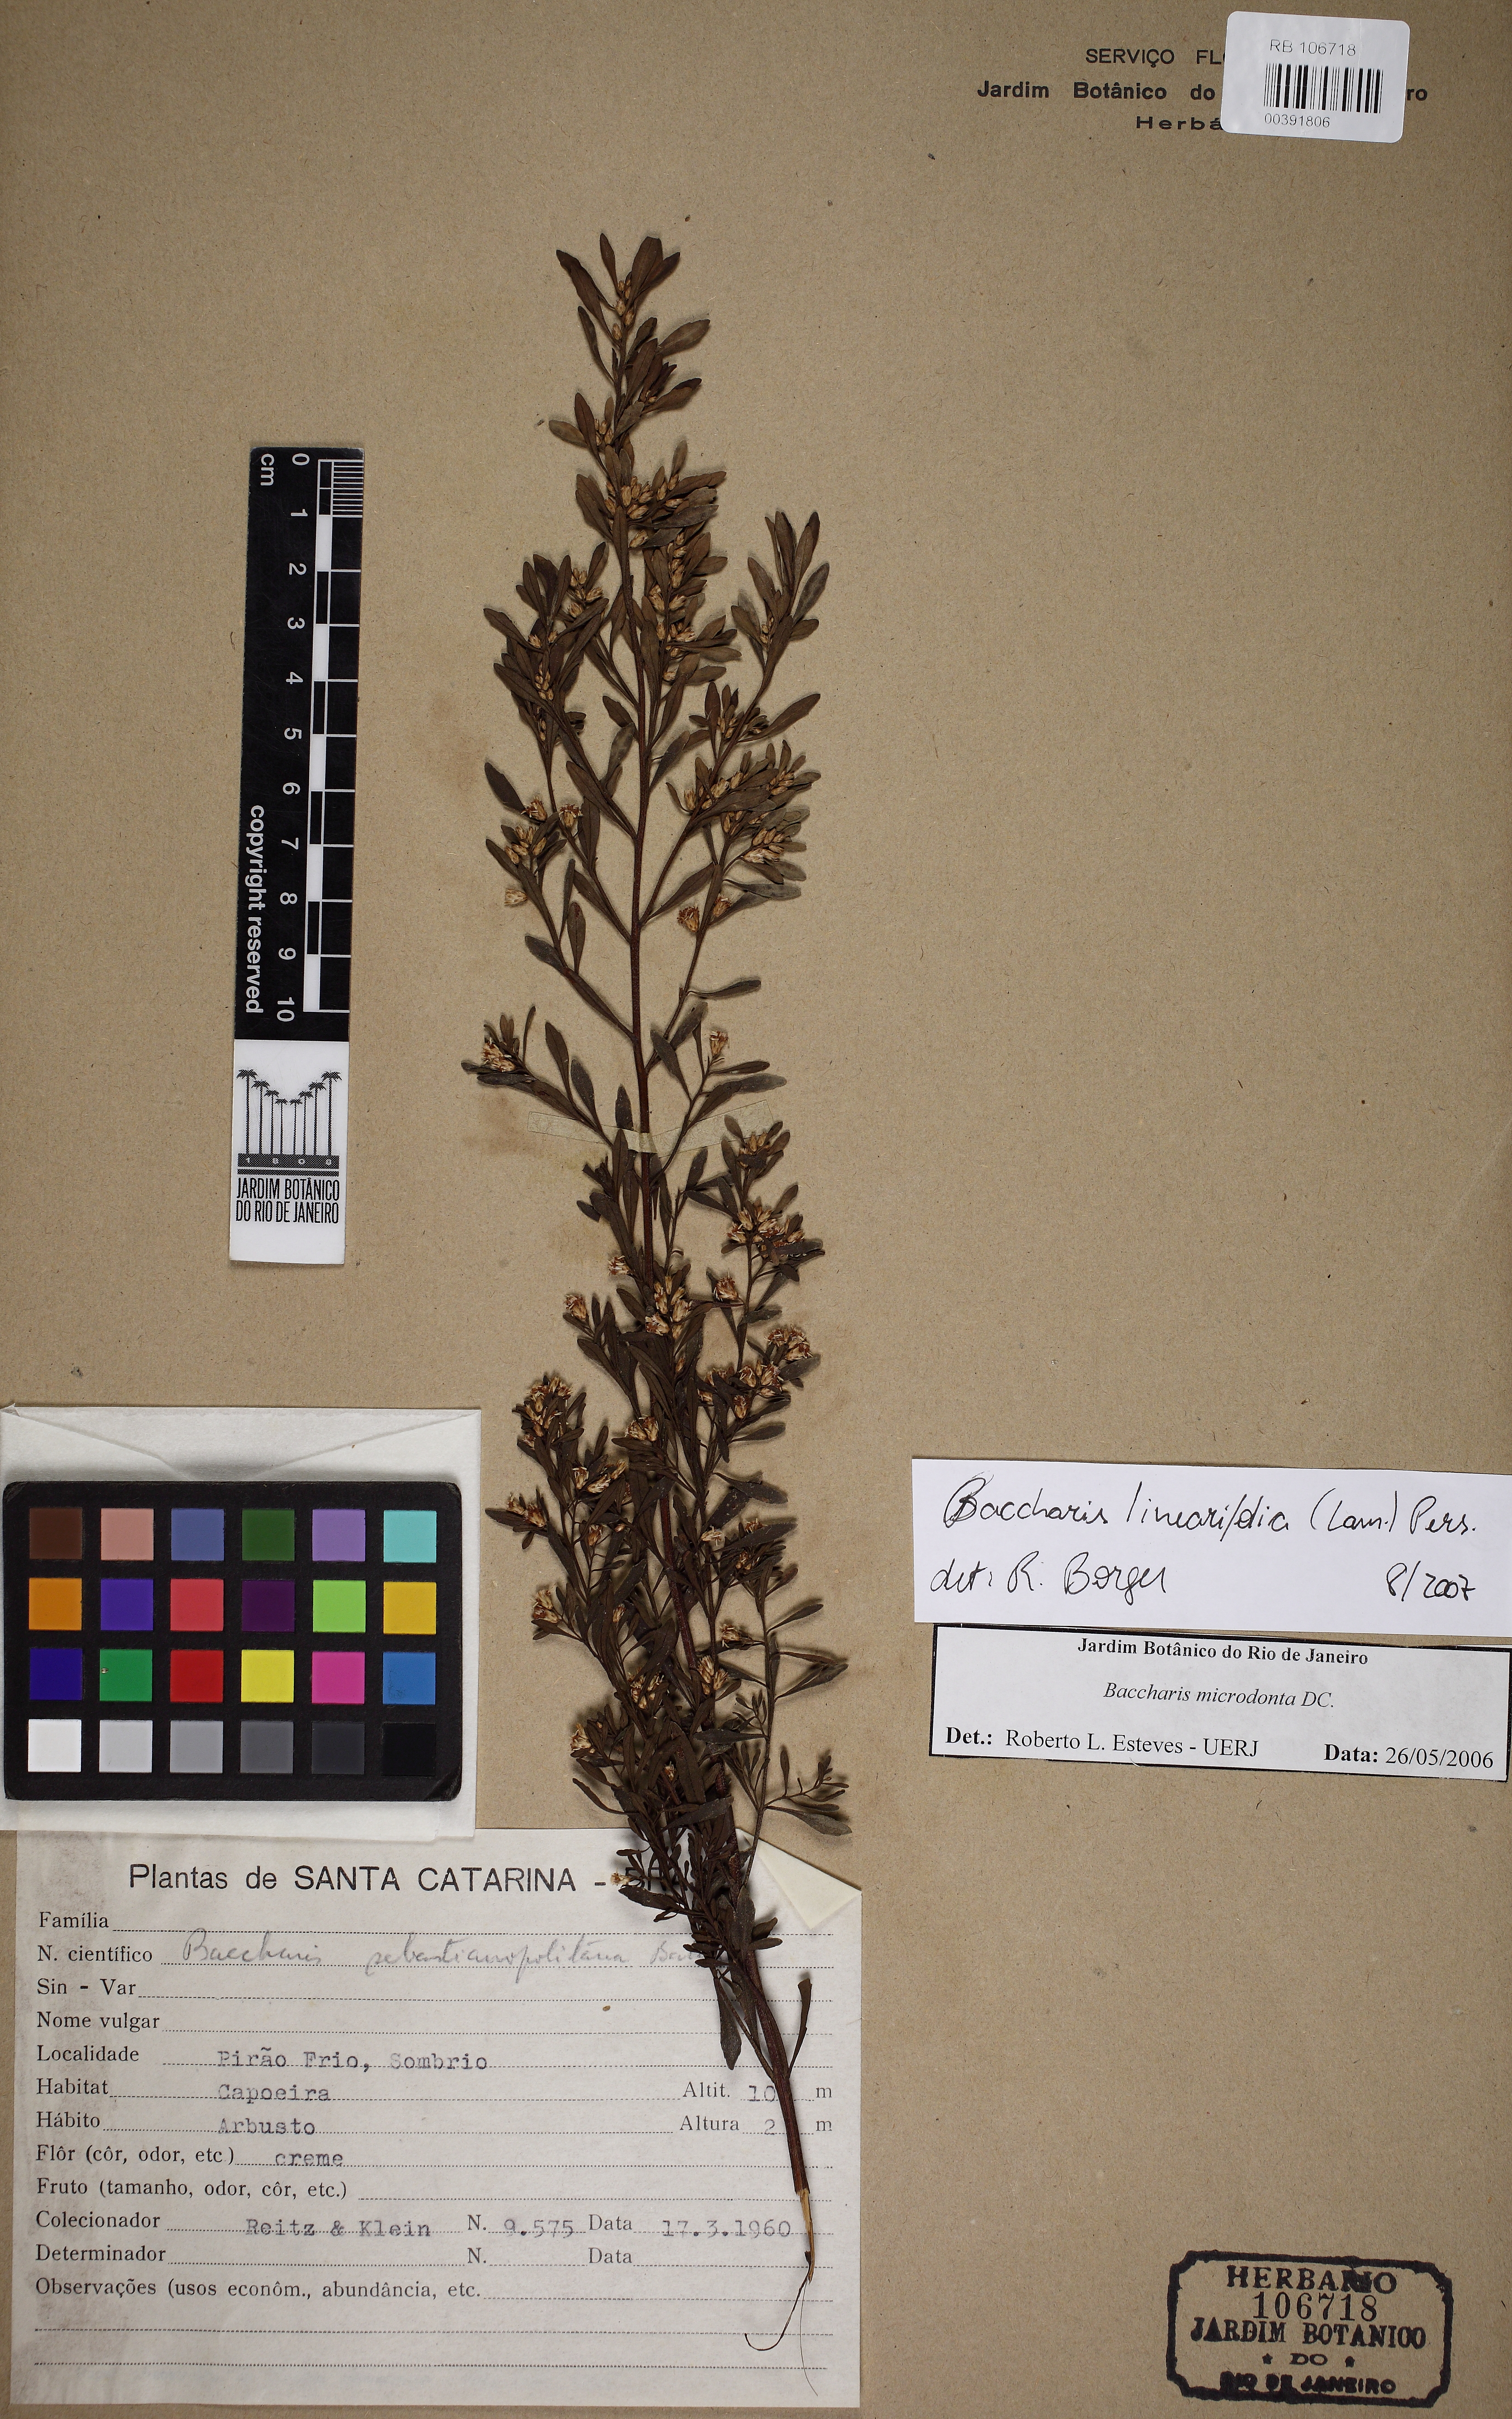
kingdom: Plantae
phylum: Tracheophyta
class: Magnoliopsida
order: Asterales
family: Asteraceae
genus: Baccharis
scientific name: Baccharis linearifolia
